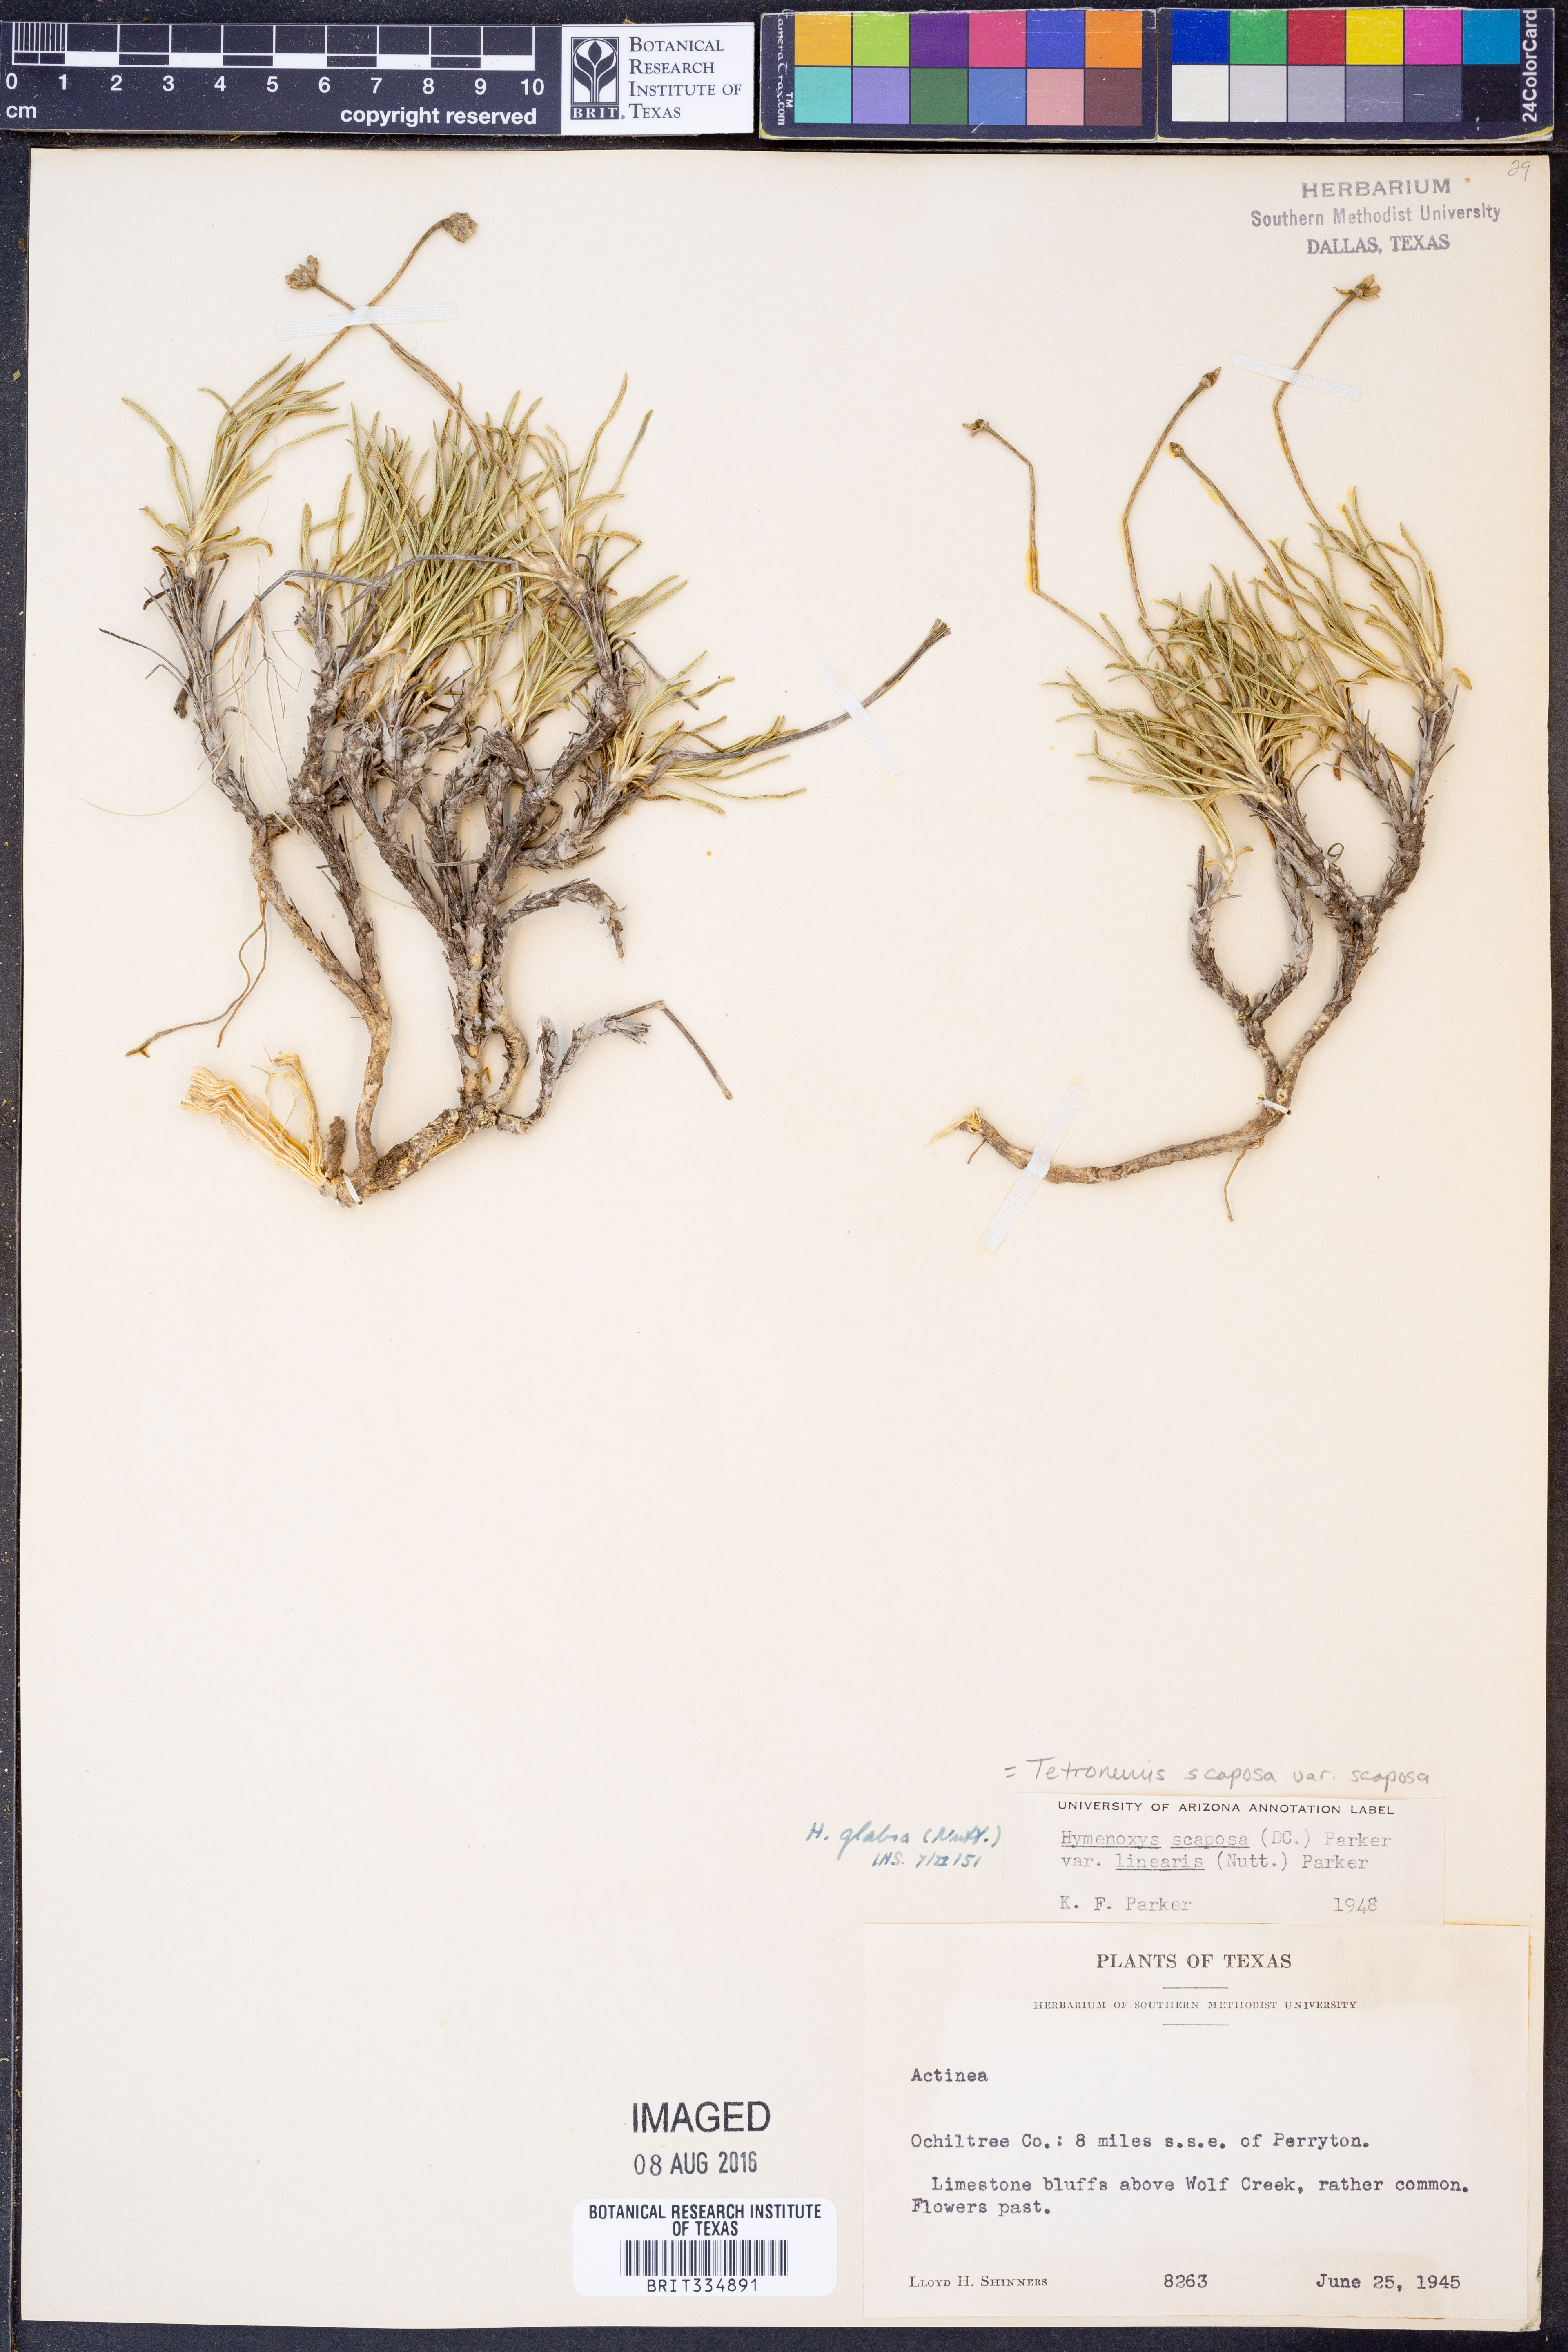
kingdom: Plantae
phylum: Tracheophyta
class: Magnoliopsida
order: Asterales
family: Asteraceae
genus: Tetraneuris
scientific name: Tetraneuris scaposa
